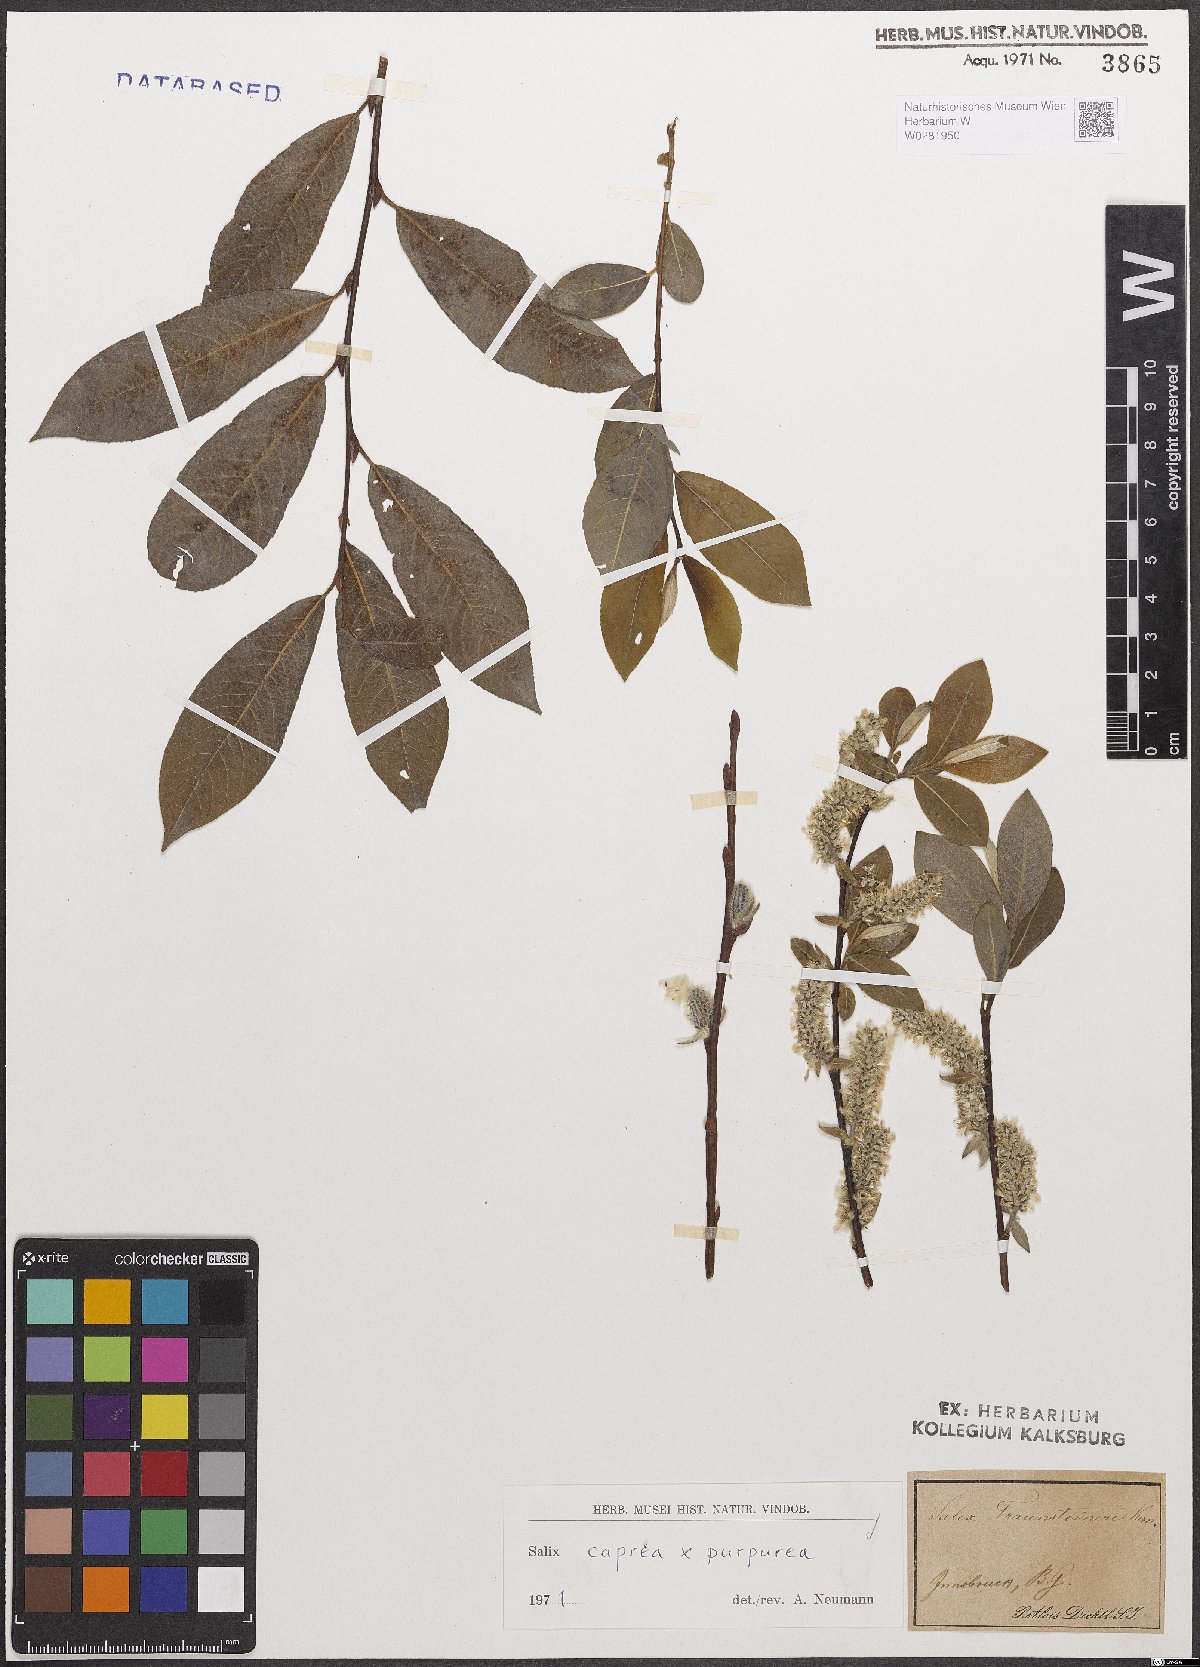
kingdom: Plantae
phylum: Tracheophyta
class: Magnoliopsida
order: Malpighiales
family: Salicaceae
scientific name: Salicaceae
